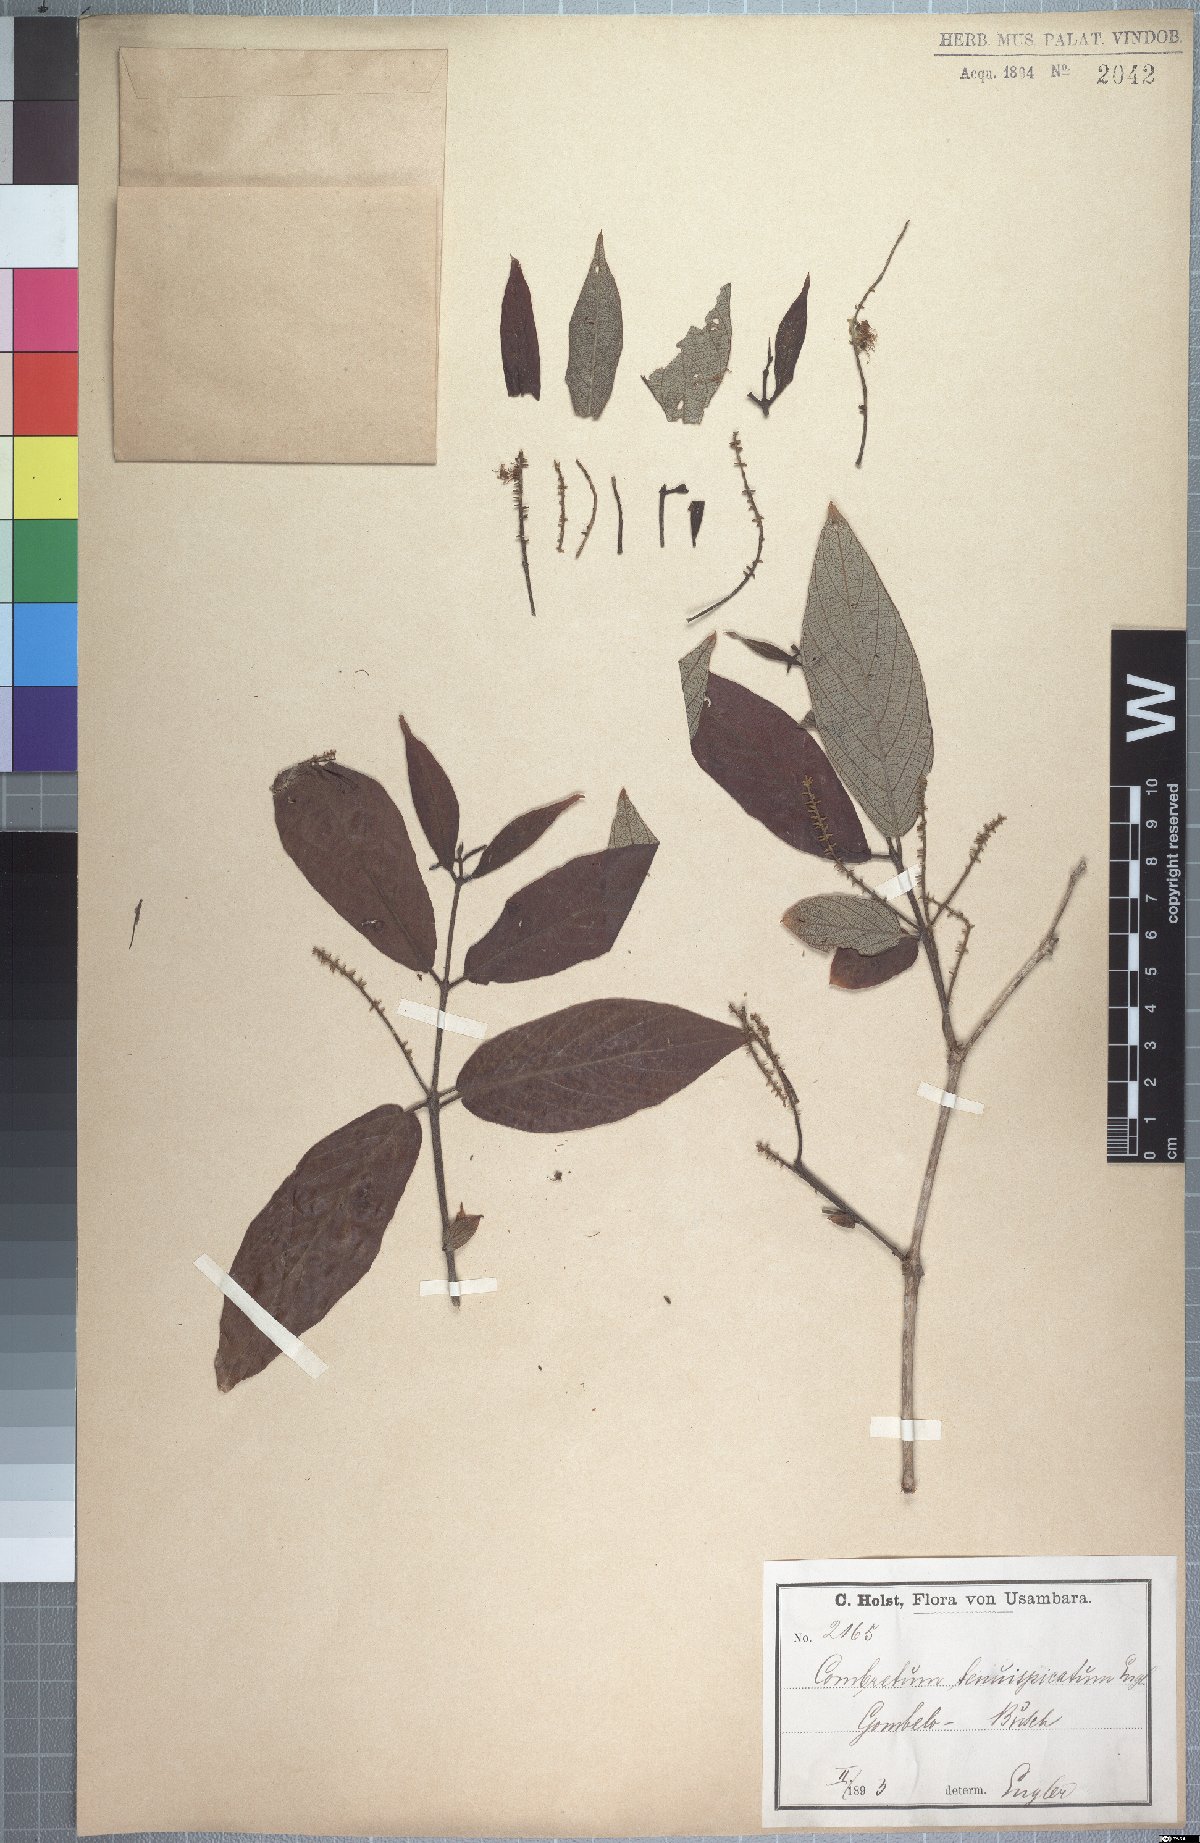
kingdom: Plantae
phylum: Tracheophyta
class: Magnoliopsida
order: Myrtales
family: Combretaceae
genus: Combretum
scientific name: Combretum molle
